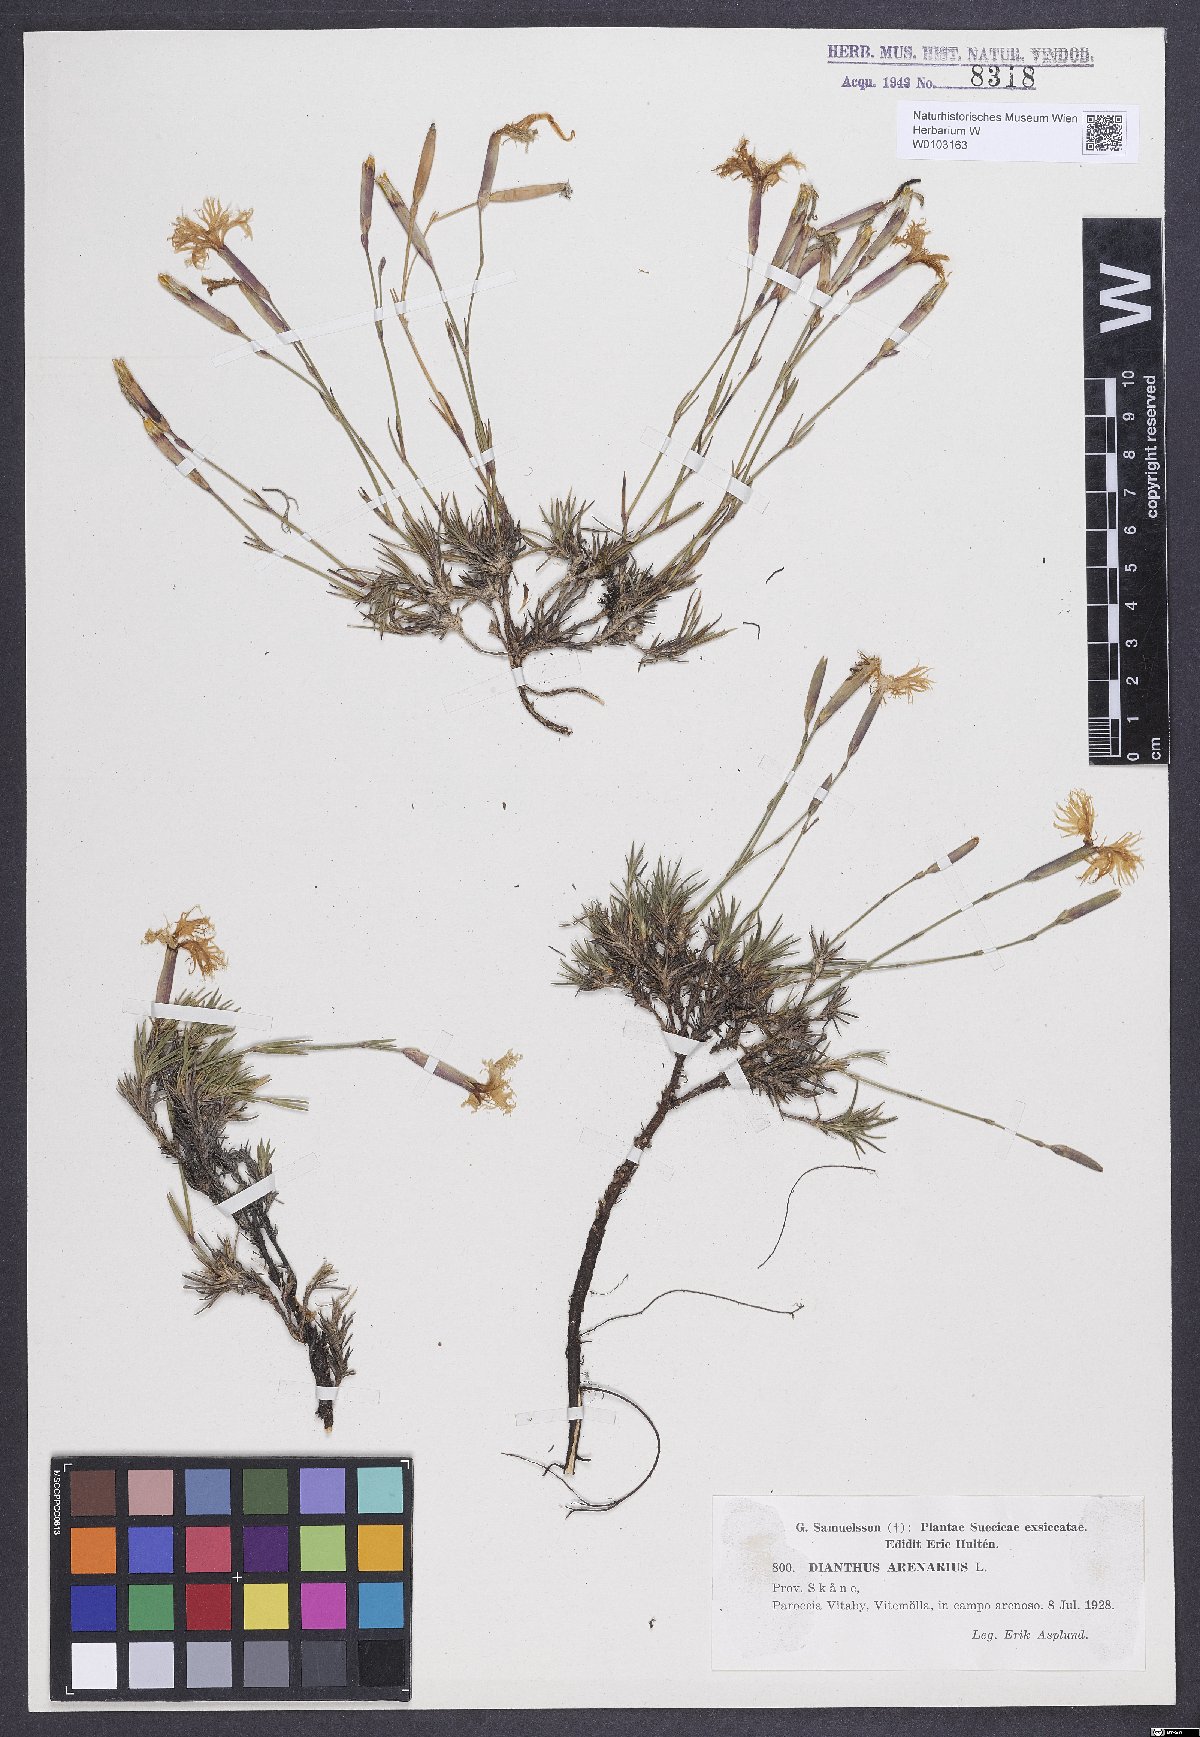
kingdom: Plantae
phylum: Tracheophyta
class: Magnoliopsida
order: Caryophyllales
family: Caryophyllaceae
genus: Dianthus
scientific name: Dianthus arenarius
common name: Stone pink
